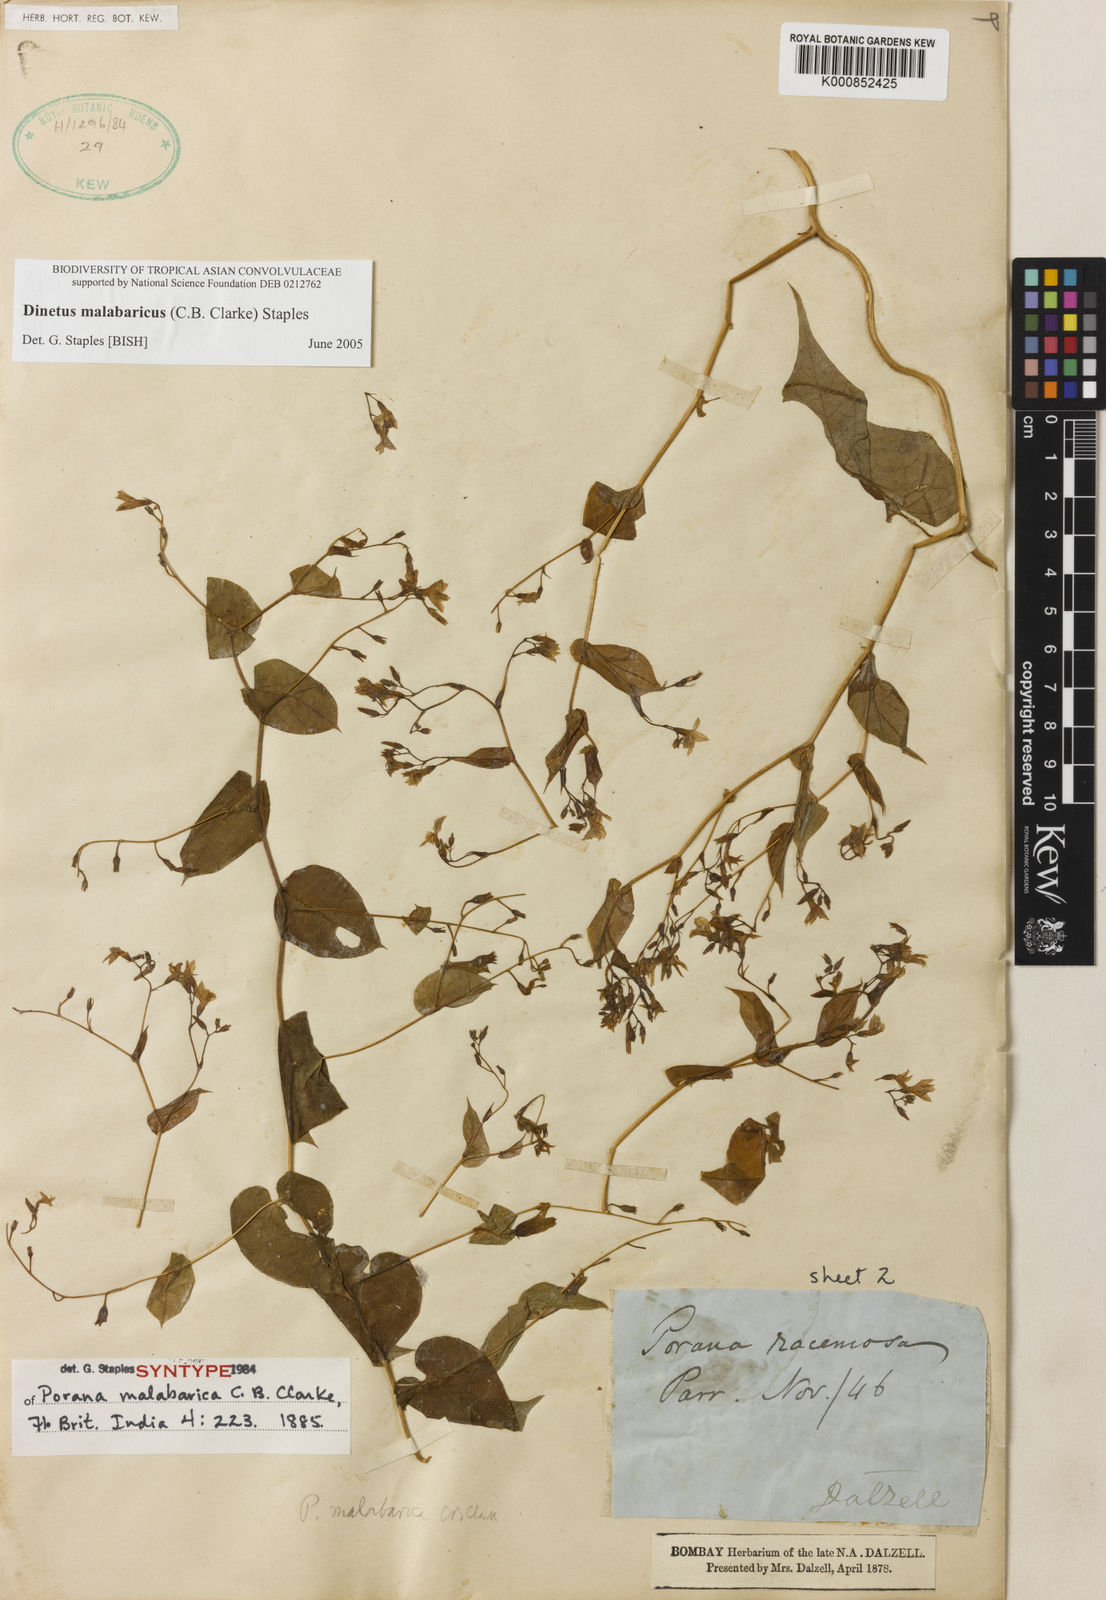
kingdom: Plantae
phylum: Tracheophyta
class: Magnoliopsida
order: Solanales
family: Convolvulaceae
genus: Dinetus
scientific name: Dinetus malabaricus
